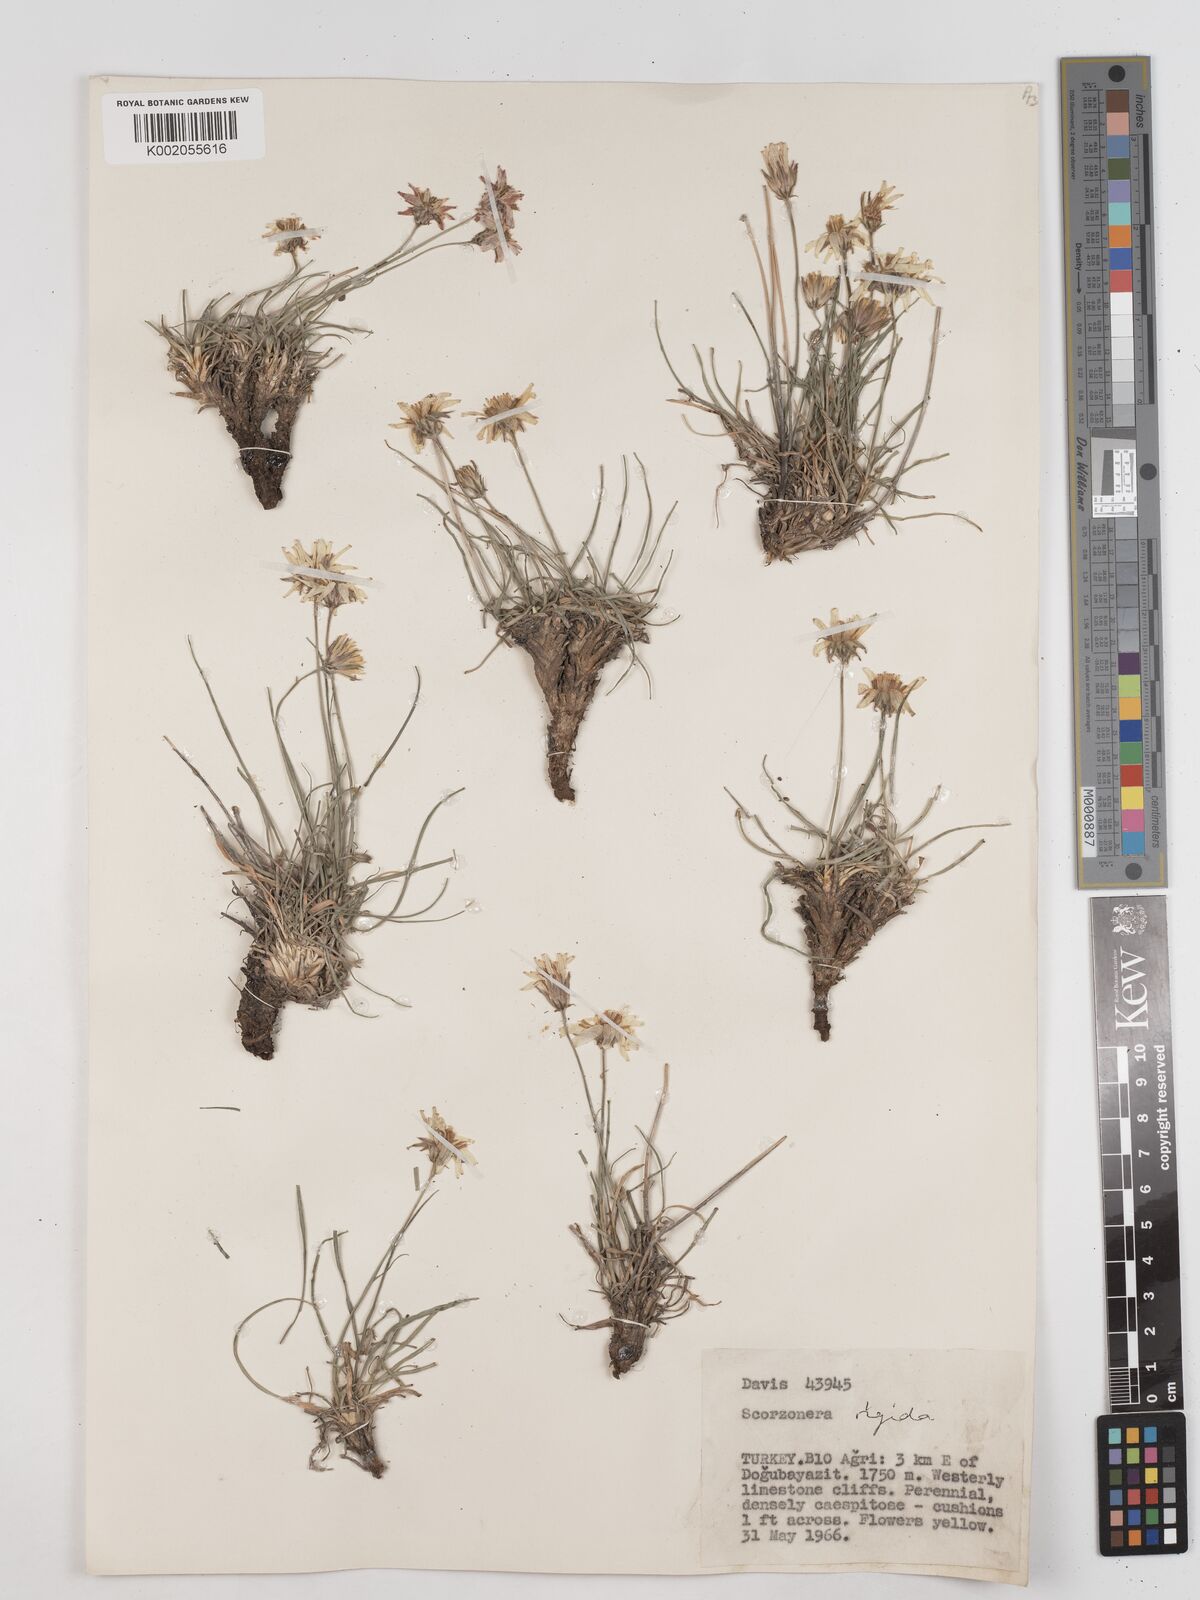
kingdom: Plantae
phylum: Tracheophyta
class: Magnoliopsida
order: Asterales
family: Asteraceae
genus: Scorzonera
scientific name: Scorzonera
